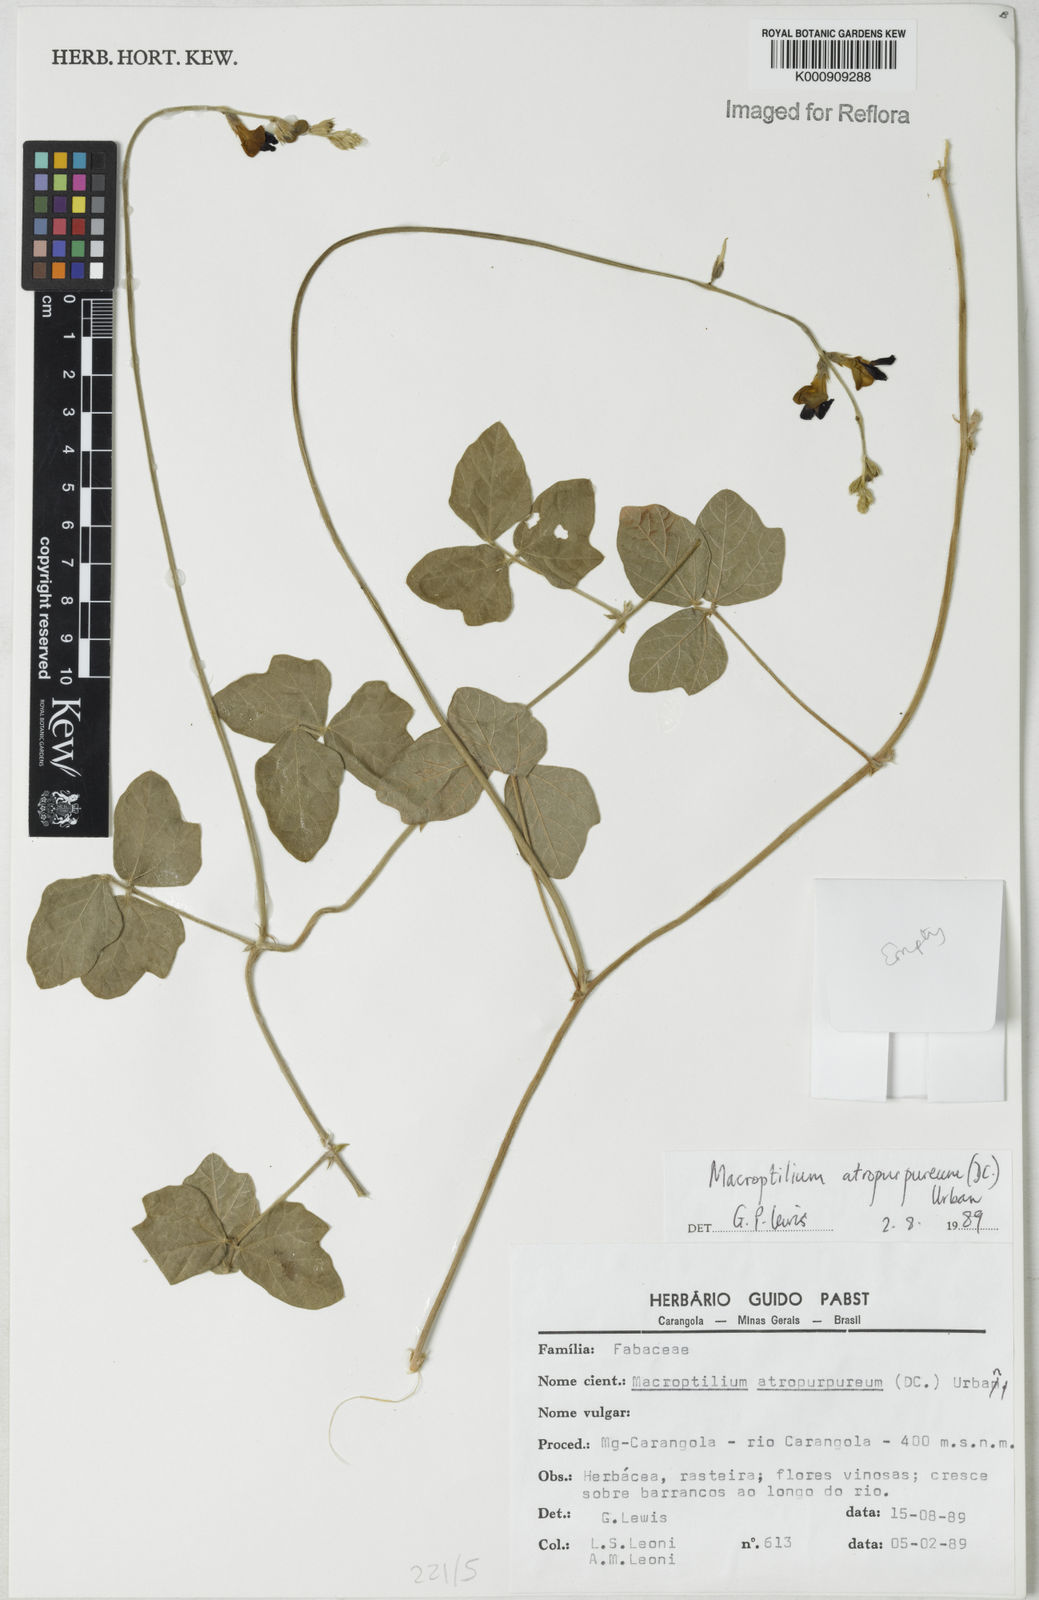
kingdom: Plantae
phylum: Tracheophyta
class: Magnoliopsida
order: Fabales
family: Fabaceae
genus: Macroptilium
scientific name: Macroptilium atropurpureum
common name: Purple bushbean
